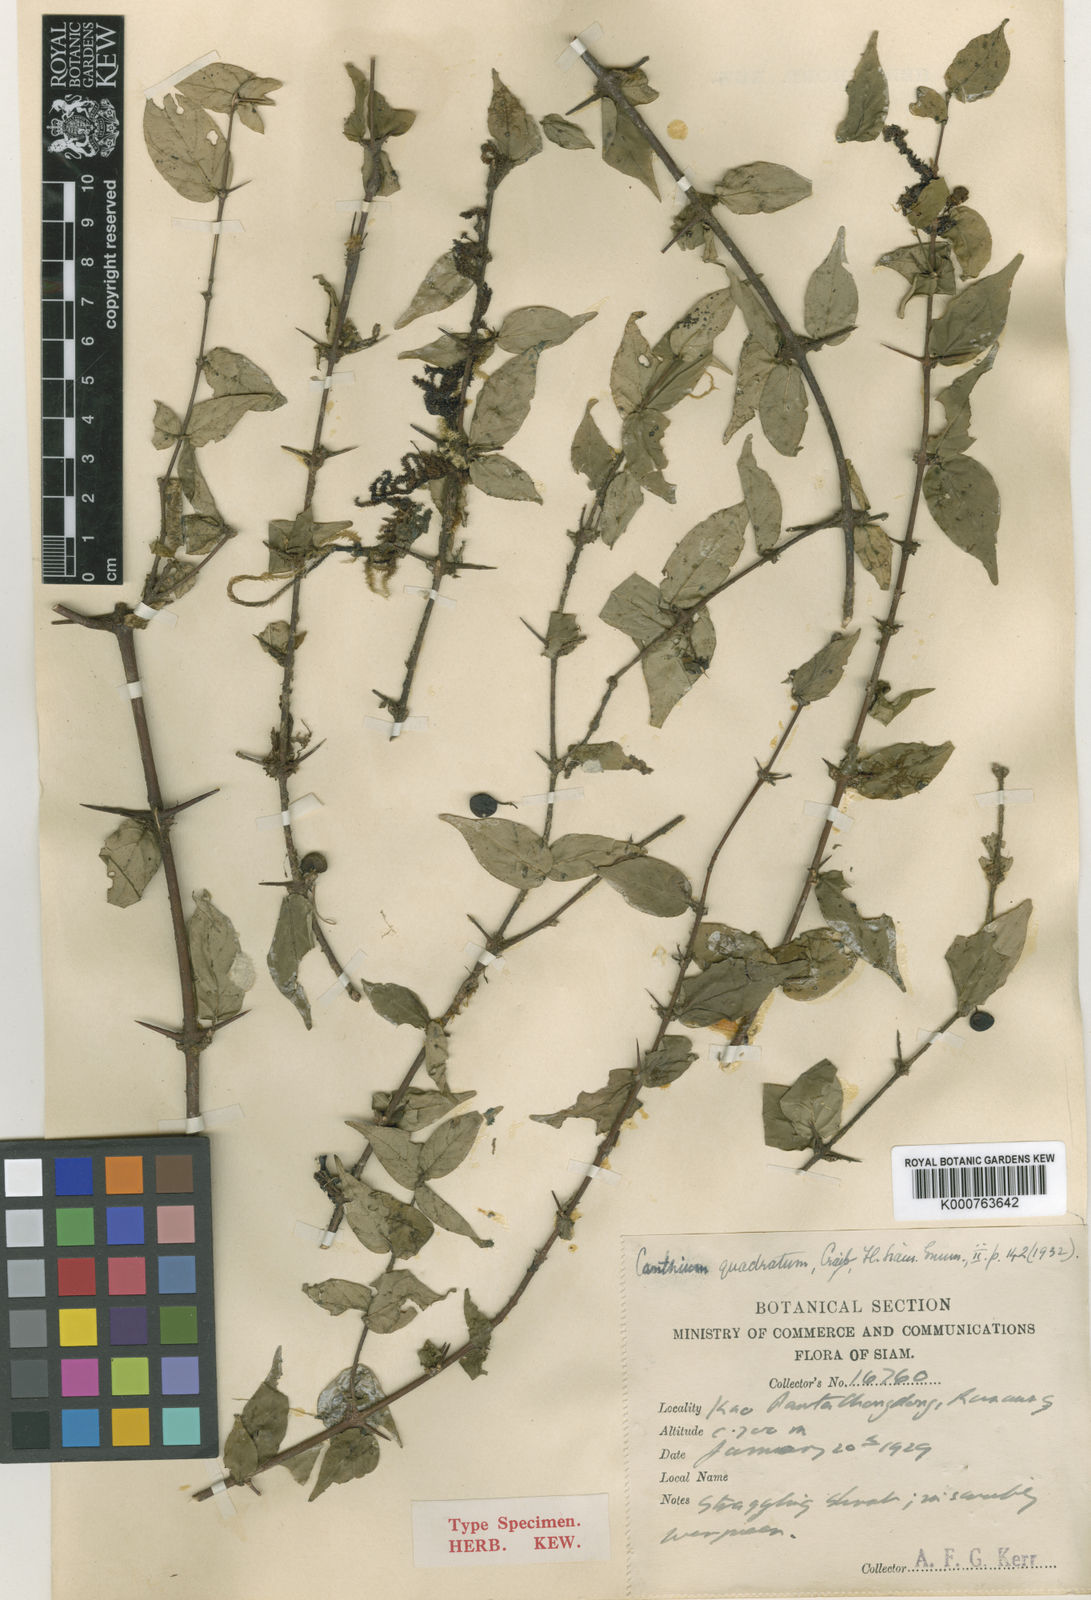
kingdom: Plantae
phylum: Tracheophyta
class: Magnoliopsida
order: Gentianales
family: Rubiaceae
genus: Canthium
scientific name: Canthium quadratum
